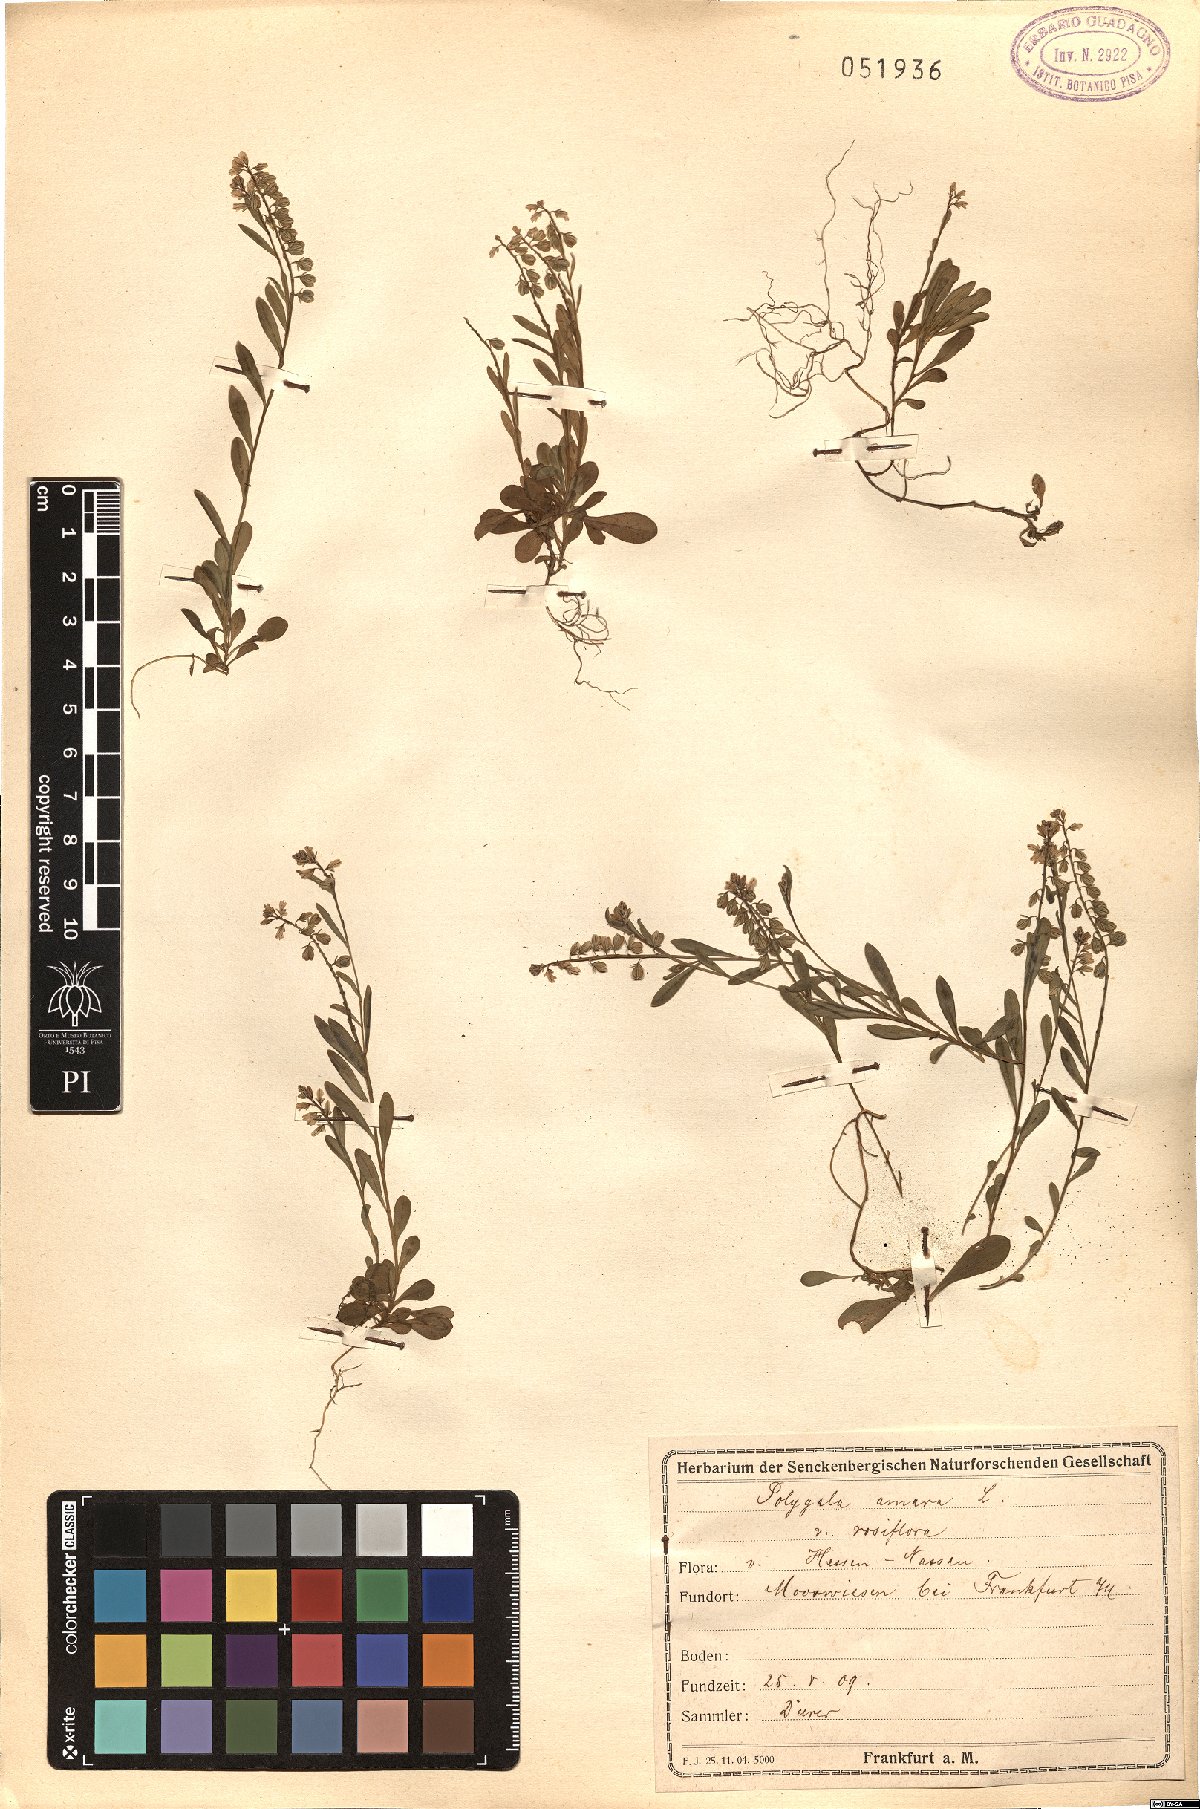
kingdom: Plantae
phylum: Tracheophyta
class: Magnoliopsida
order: Fabales
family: Polygalaceae
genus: Polygala
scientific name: Polygala amara
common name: Milkwort
